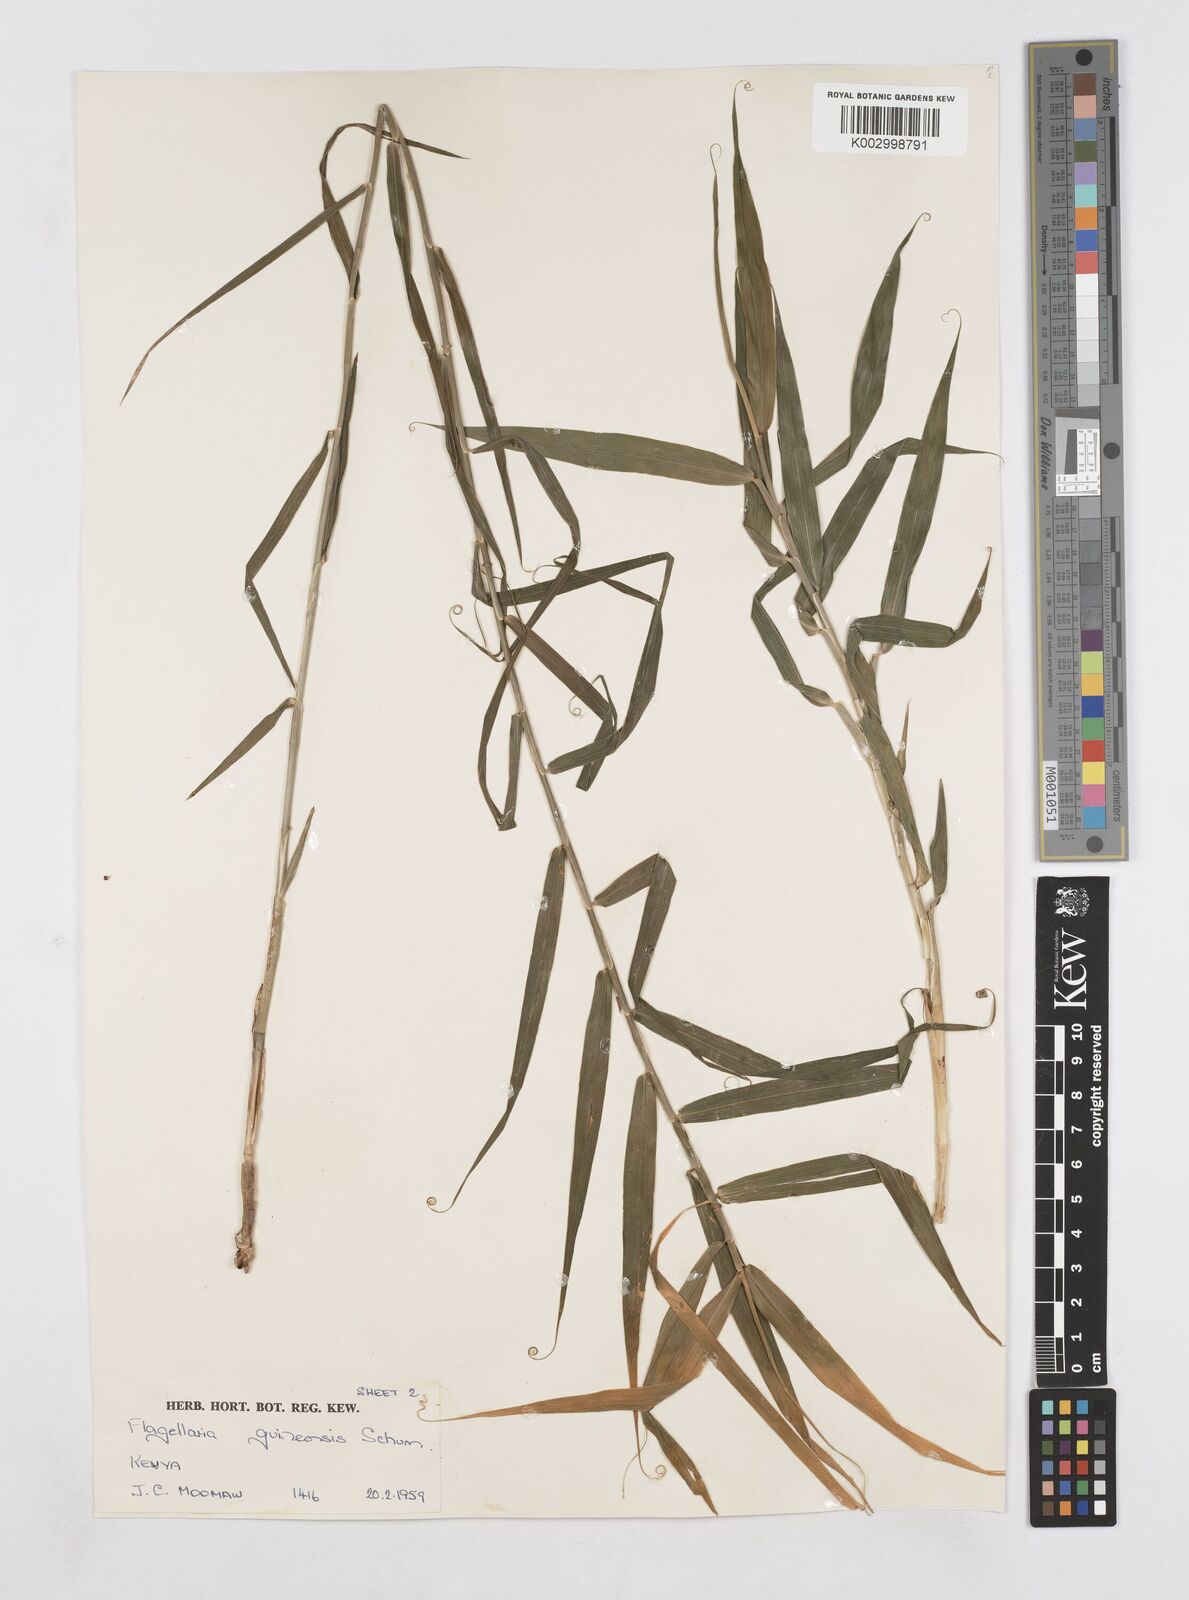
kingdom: Plantae
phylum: Tracheophyta
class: Liliopsida
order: Poales
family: Flagellariaceae
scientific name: Flagellariaceae
